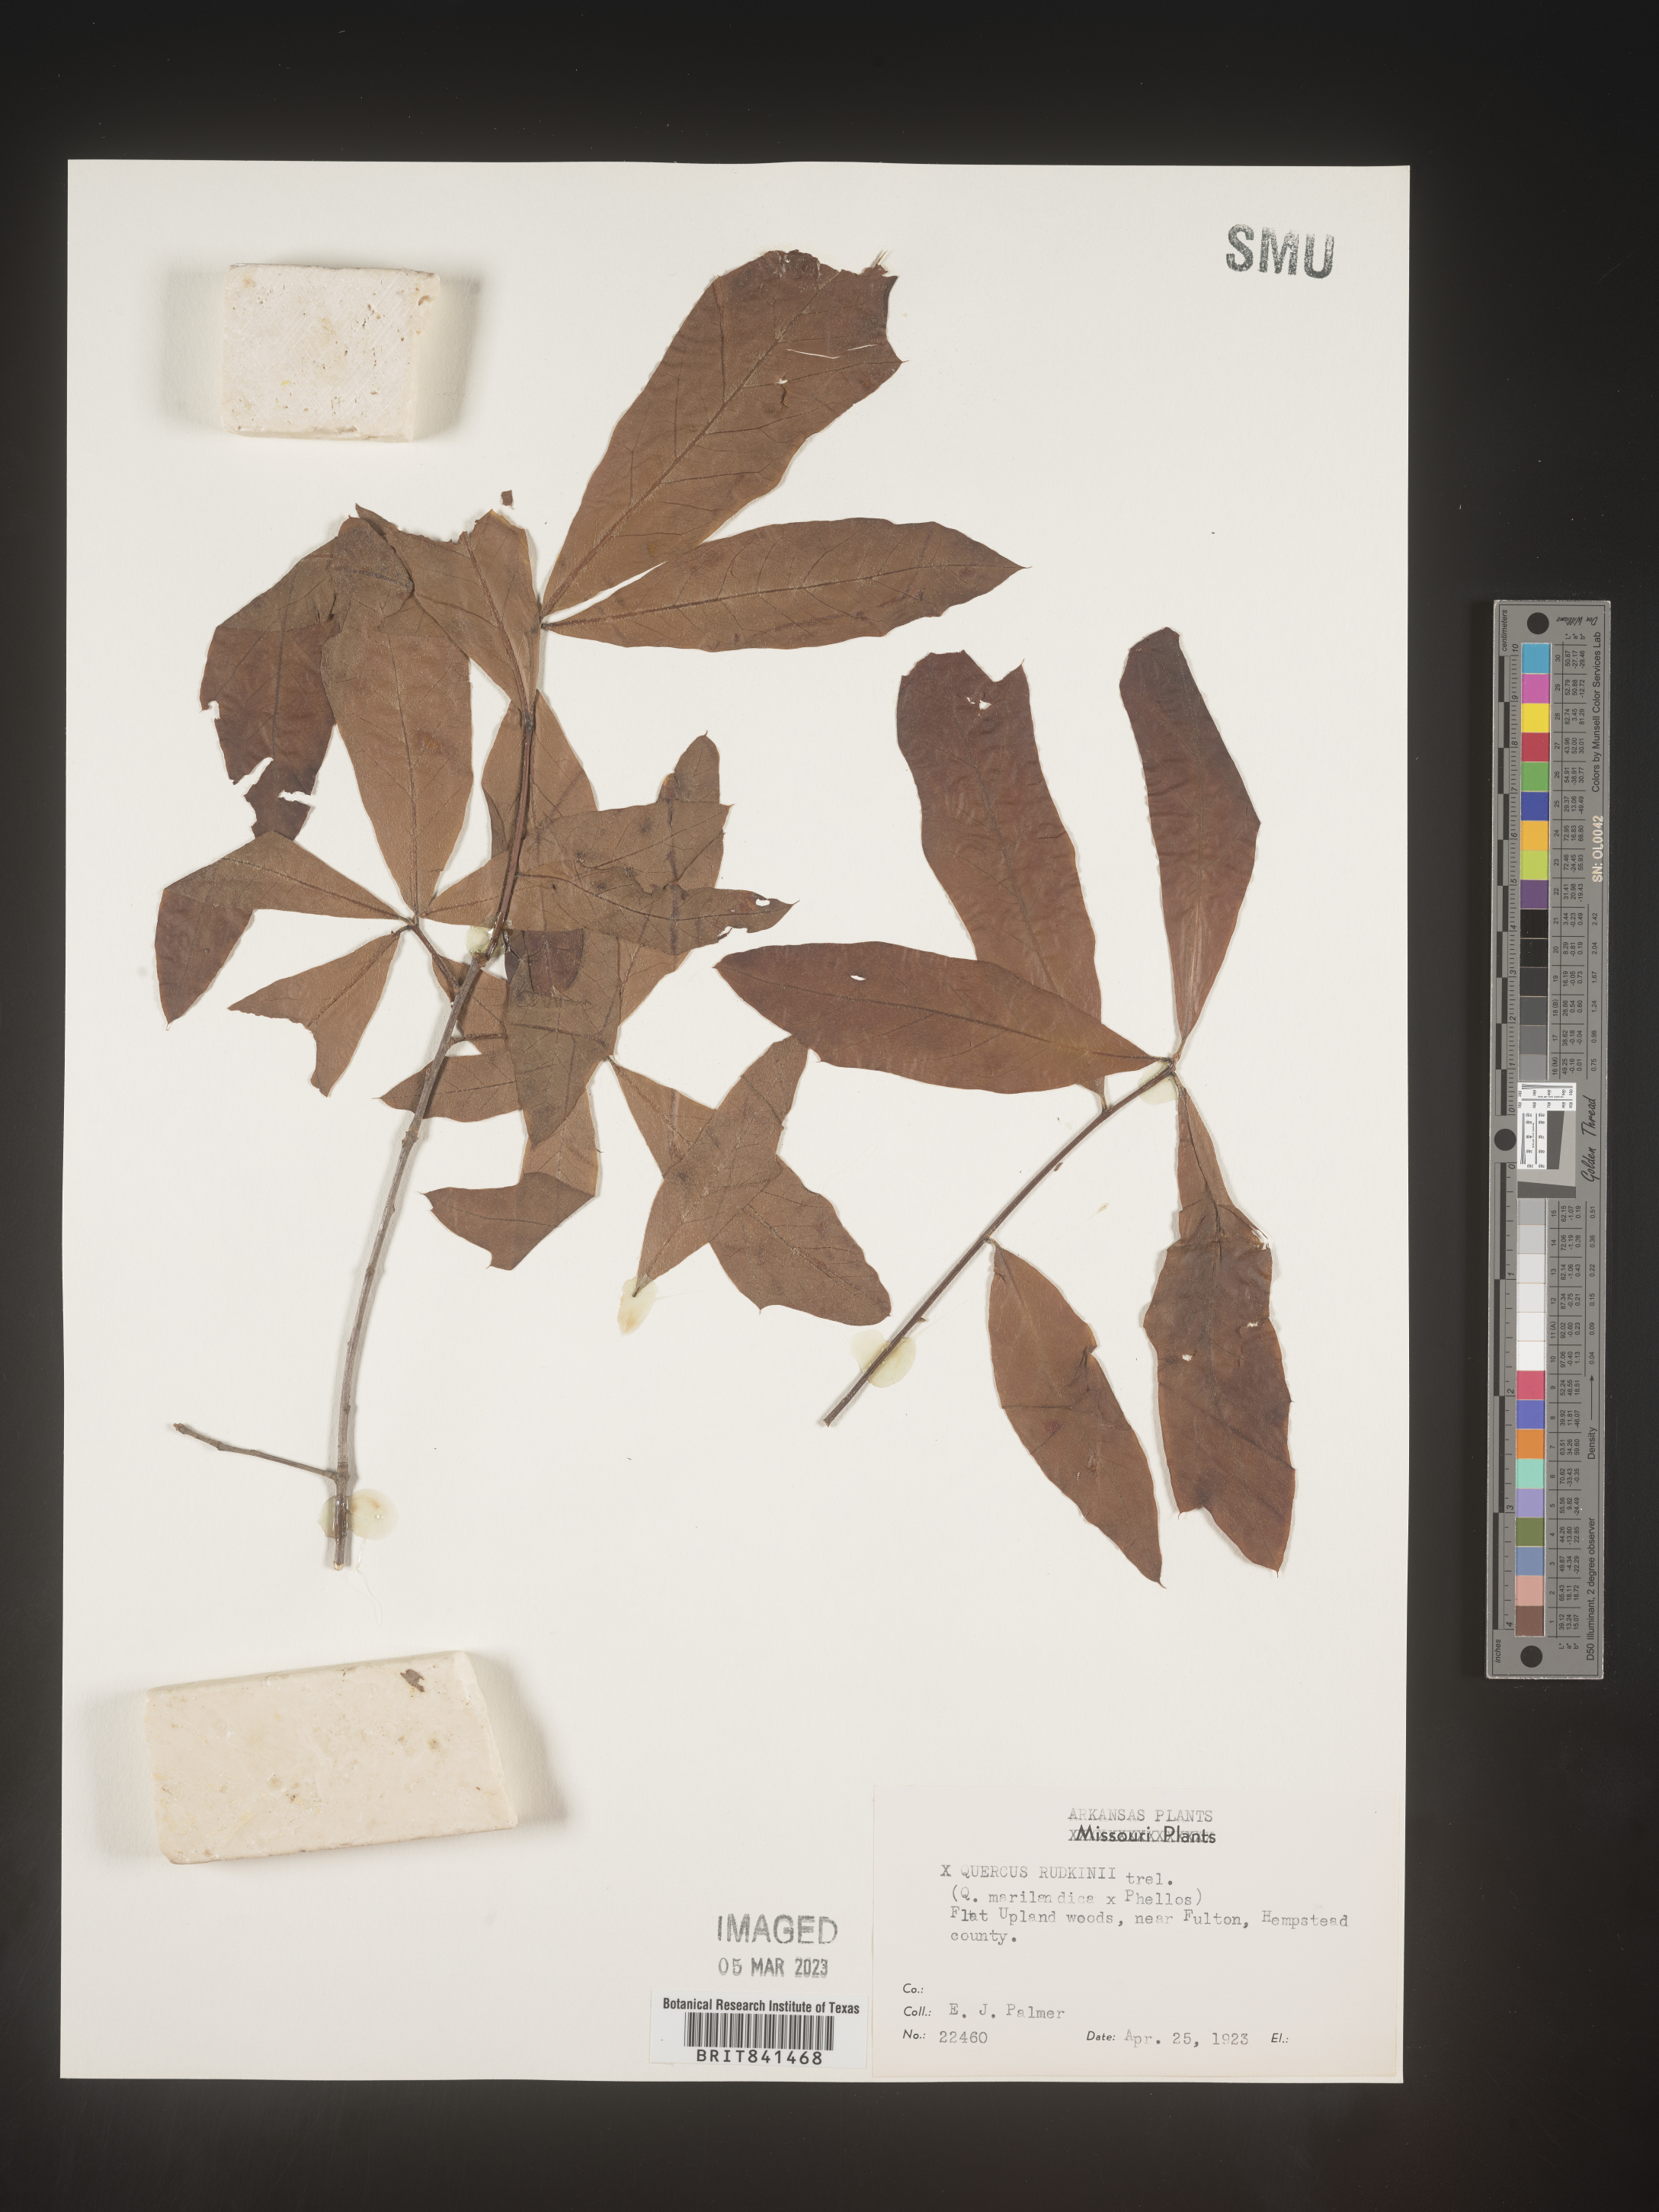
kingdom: Plantae
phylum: Tracheophyta
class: Magnoliopsida
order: Fagales
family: Fagaceae
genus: Quercus
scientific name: Quercus rudkinii
